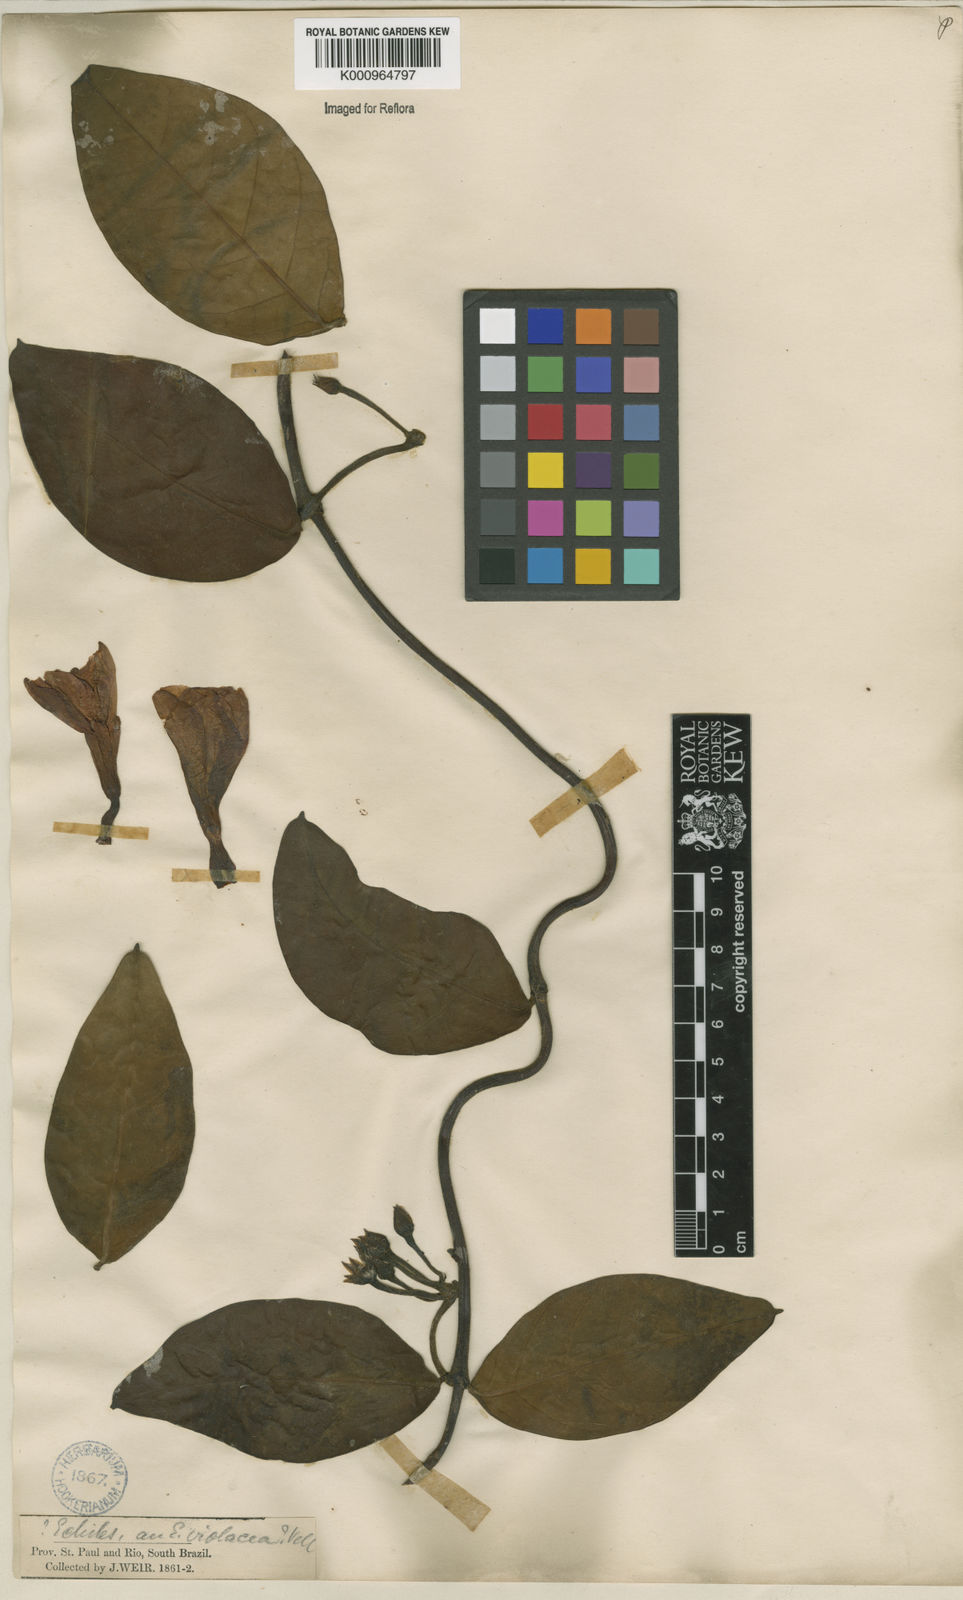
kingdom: Plantae
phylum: Tracheophyta
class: Magnoliopsida
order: Gentianales
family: Apocynaceae
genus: Temnadenia
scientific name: Temnadenia violacea
